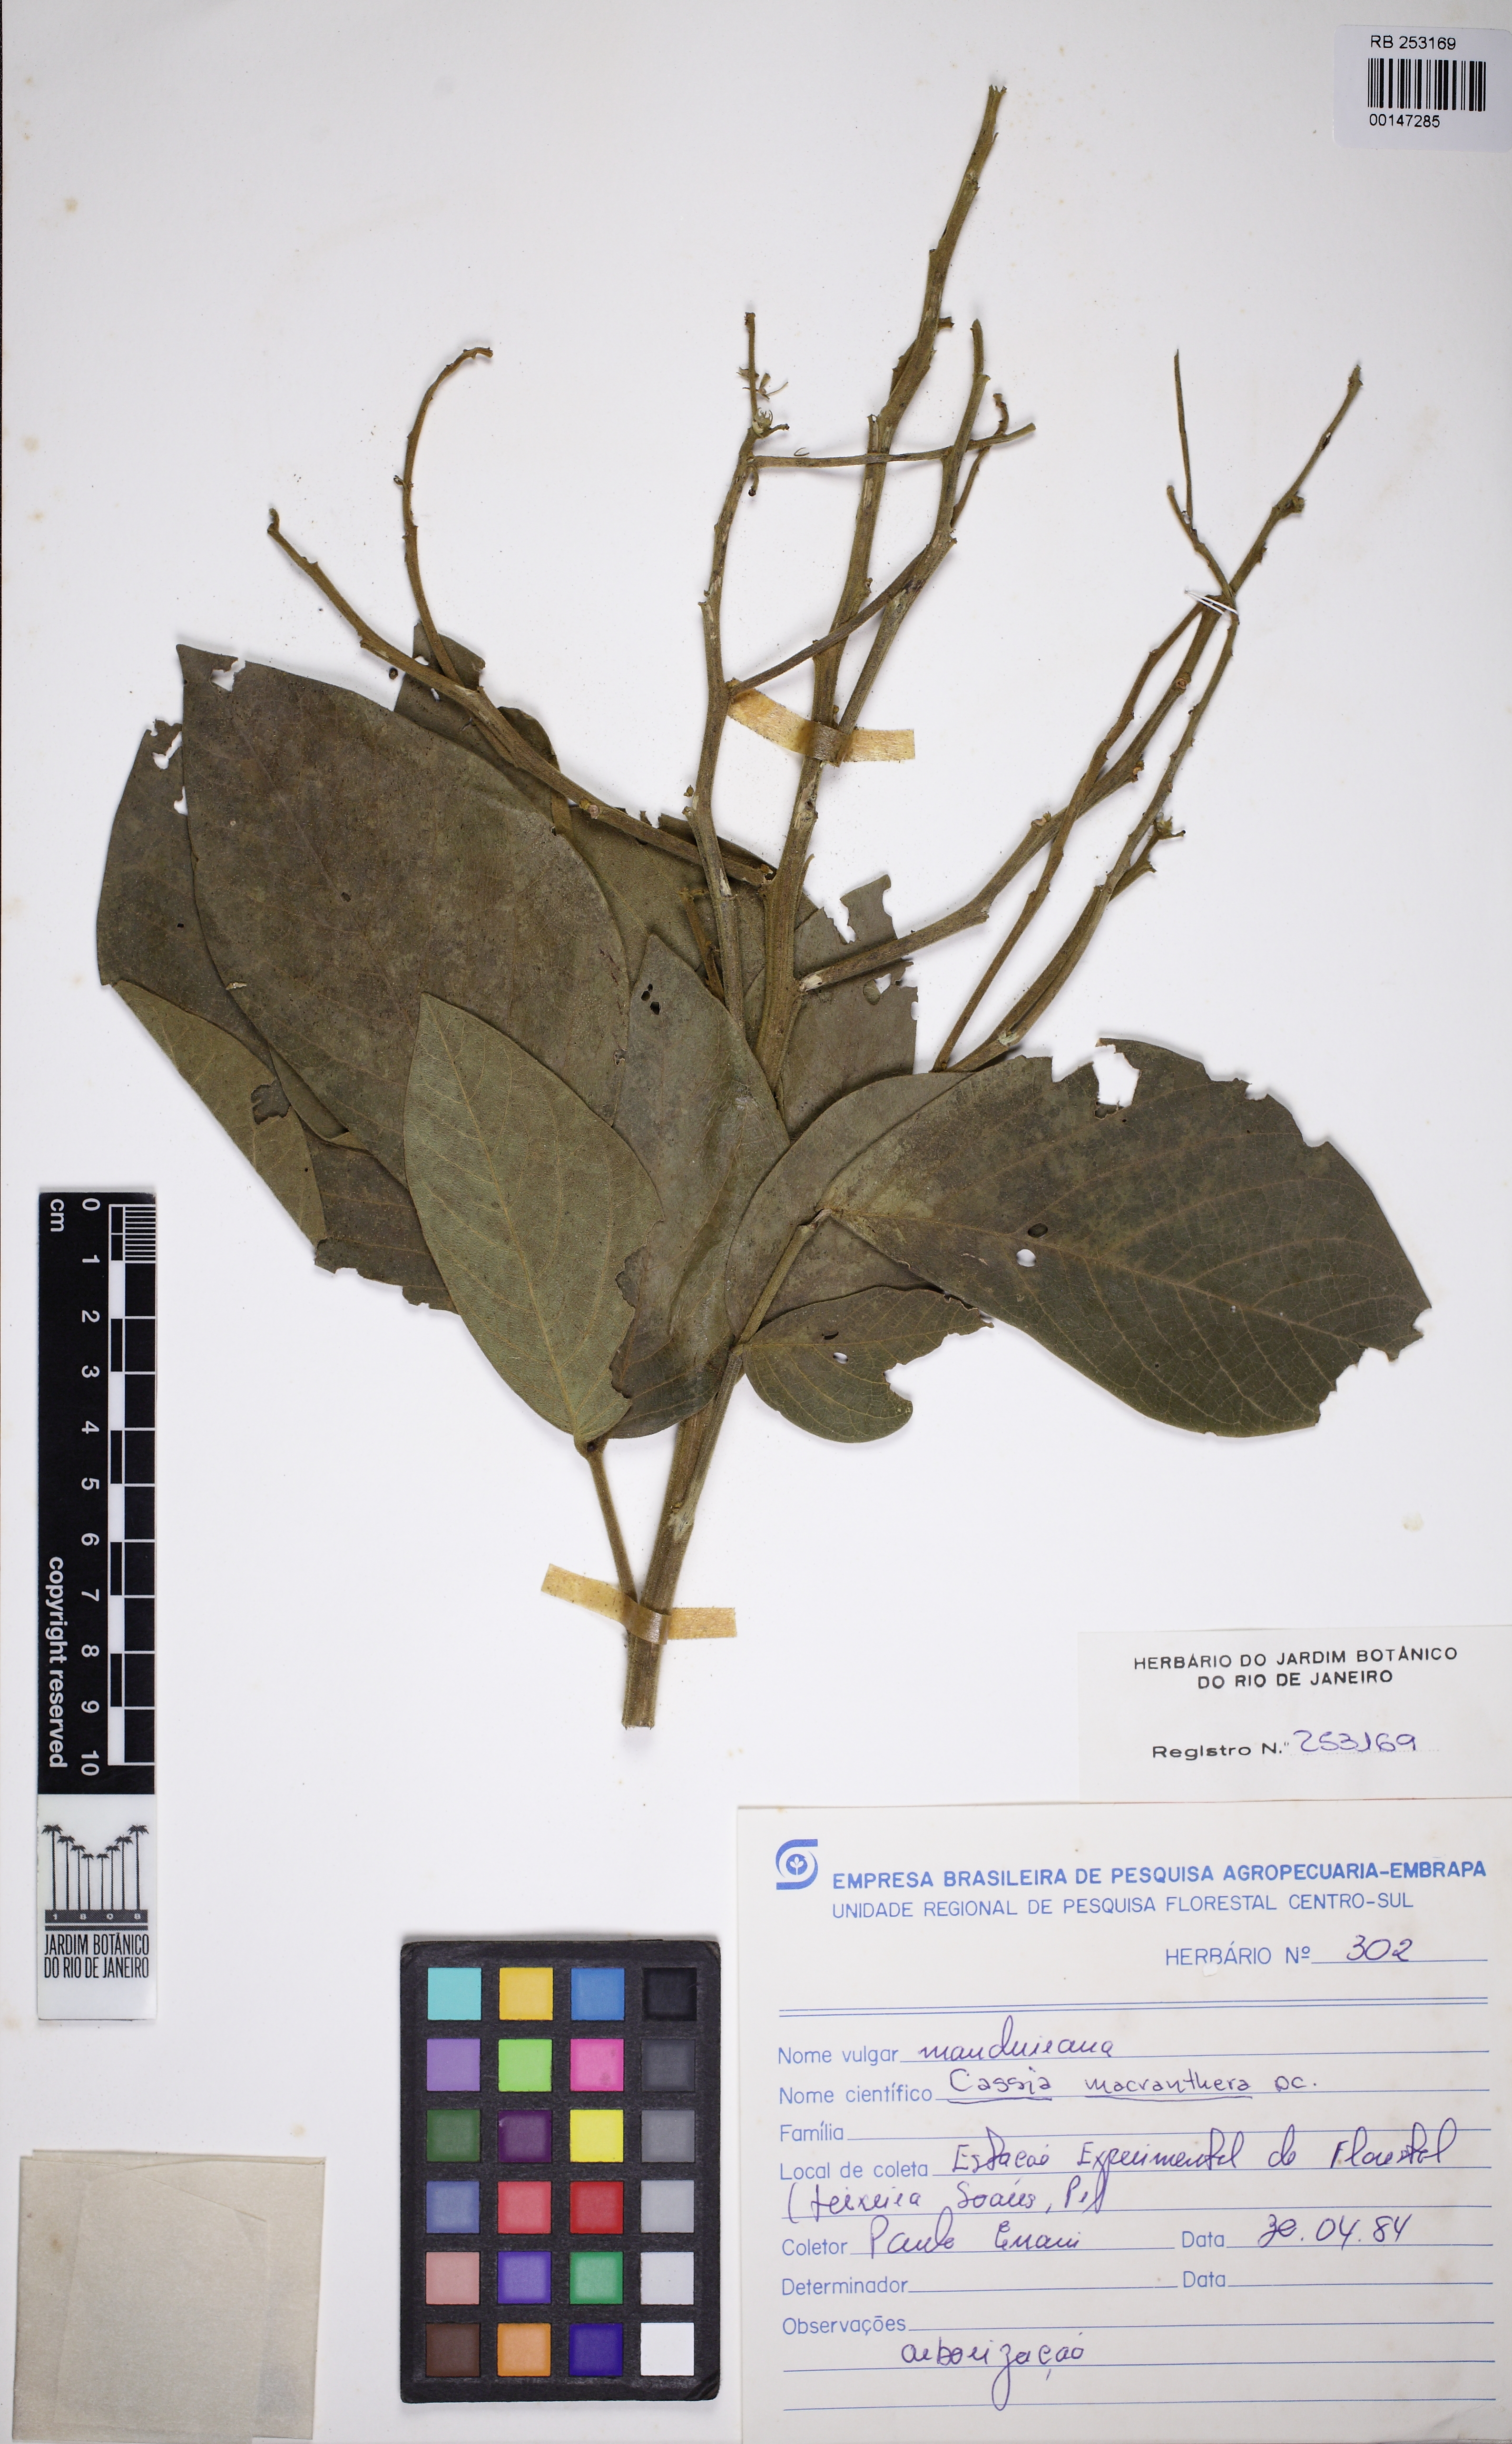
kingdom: Plantae
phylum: Tracheophyta
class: Magnoliopsida
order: Fabales
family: Fabaceae
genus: Senna
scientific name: Senna macranthera
